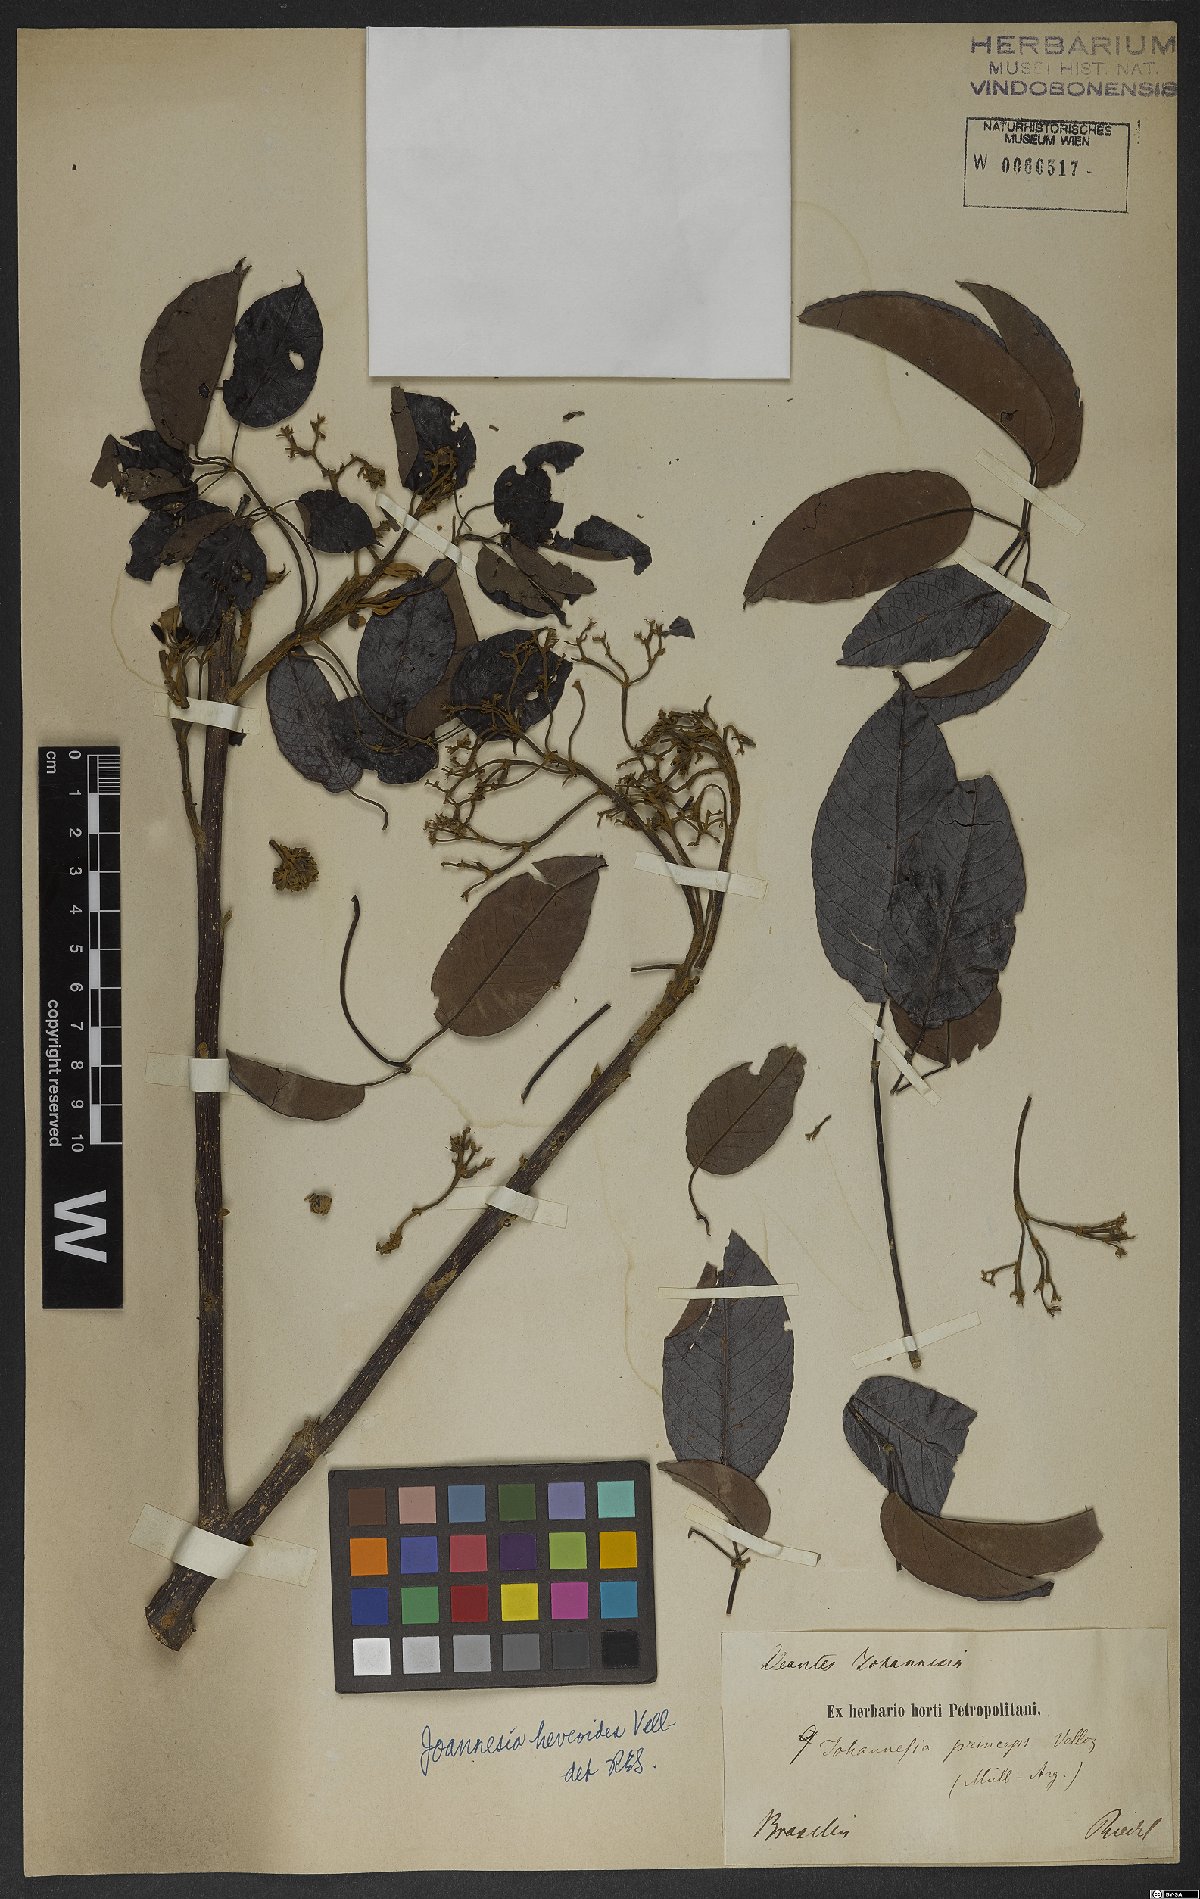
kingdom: Plantae
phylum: Tracheophyta
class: Magnoliopsida
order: Malpighiales
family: Euphorbiaceae
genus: Joannesia
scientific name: Joannesia princeps
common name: Arara nut-tree
